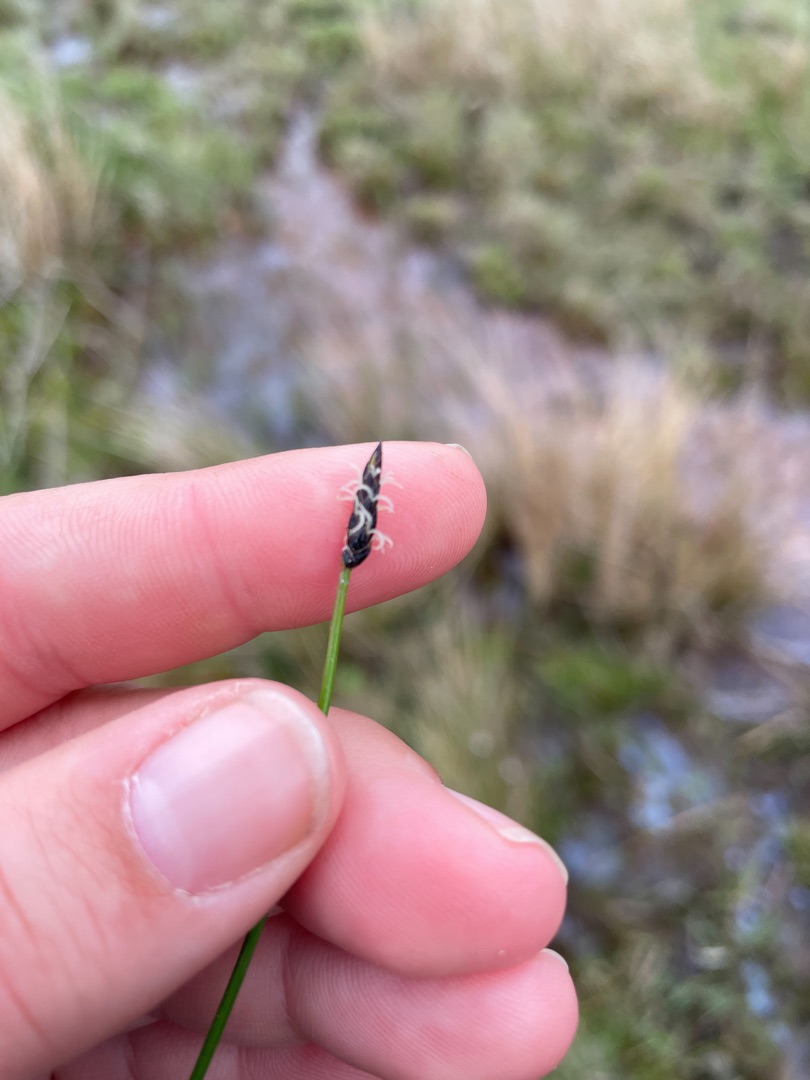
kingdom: Plantae
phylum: Tracheophyta
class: Liliopsida
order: Poales
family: Cyperaceae
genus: Eleocharis
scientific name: Eleocharis uniglumis
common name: Enskællet sumpstrå
